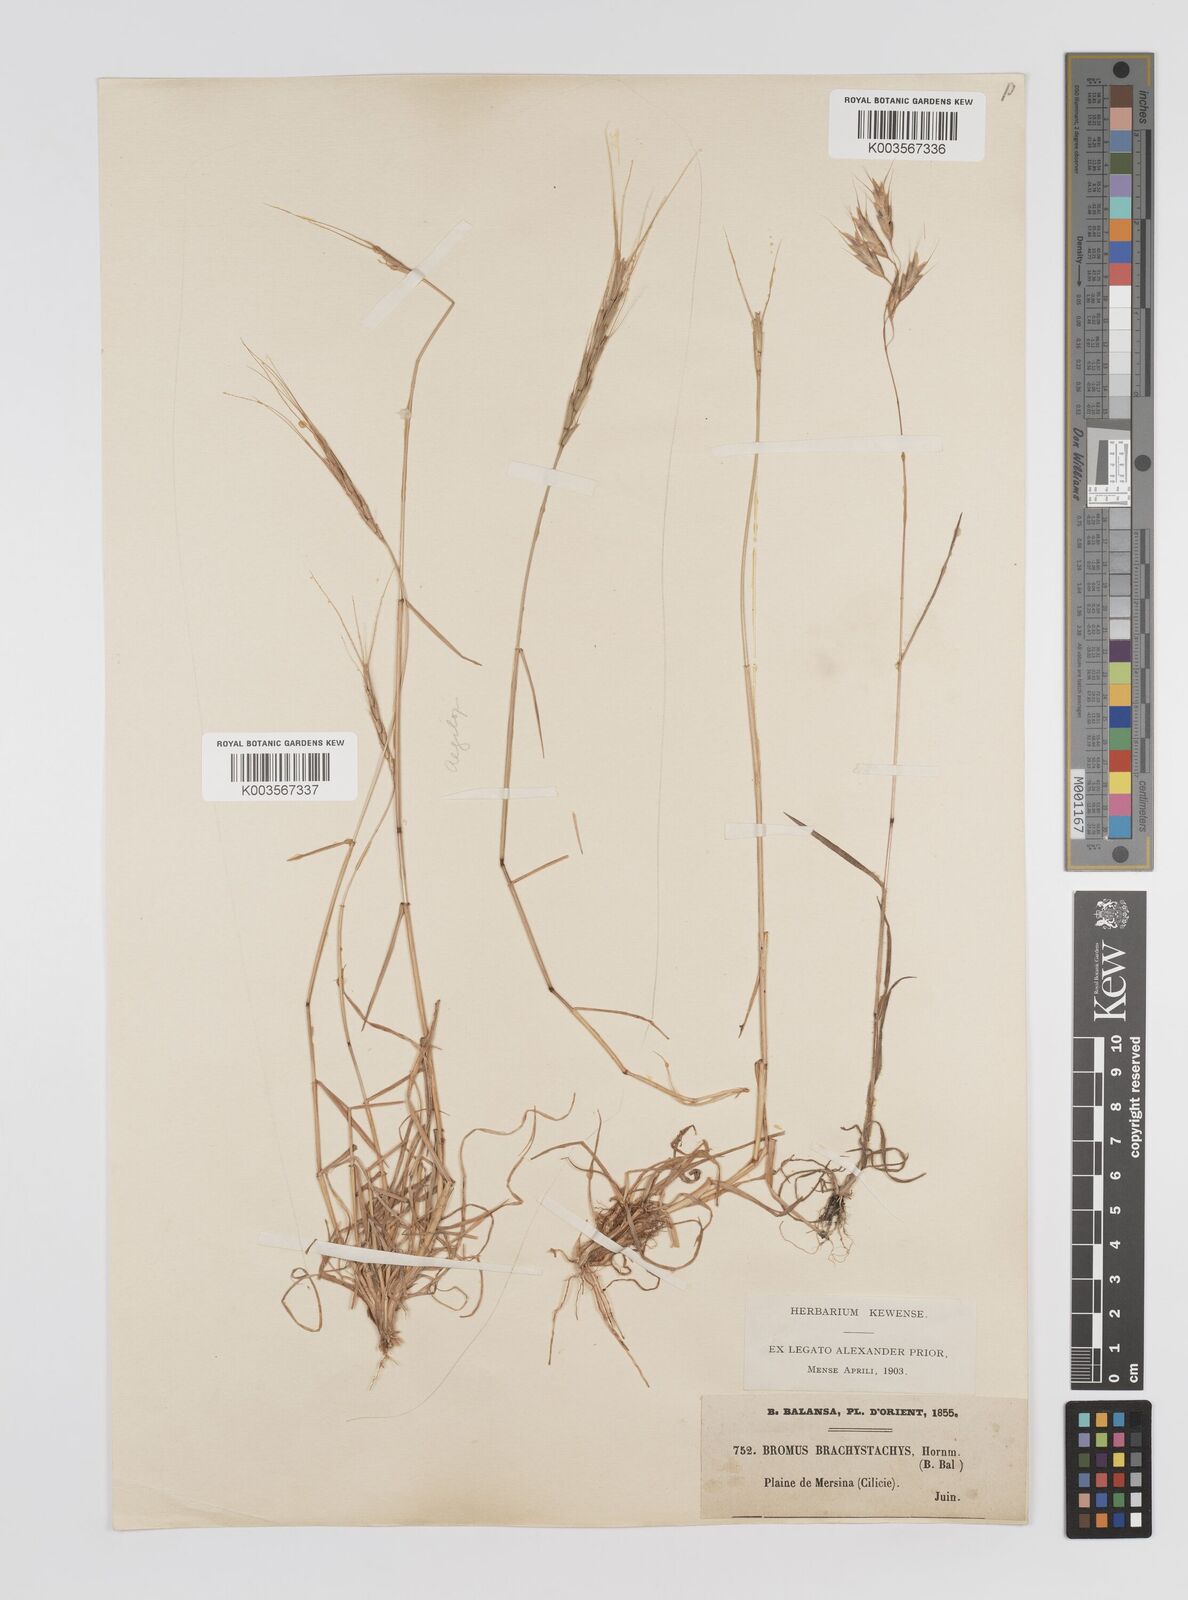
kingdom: Plantae
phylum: Tracheophyta
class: Liliopsida
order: Poales
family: Poaceae
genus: Bromus
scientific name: Bromus erectus
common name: Erect brome
